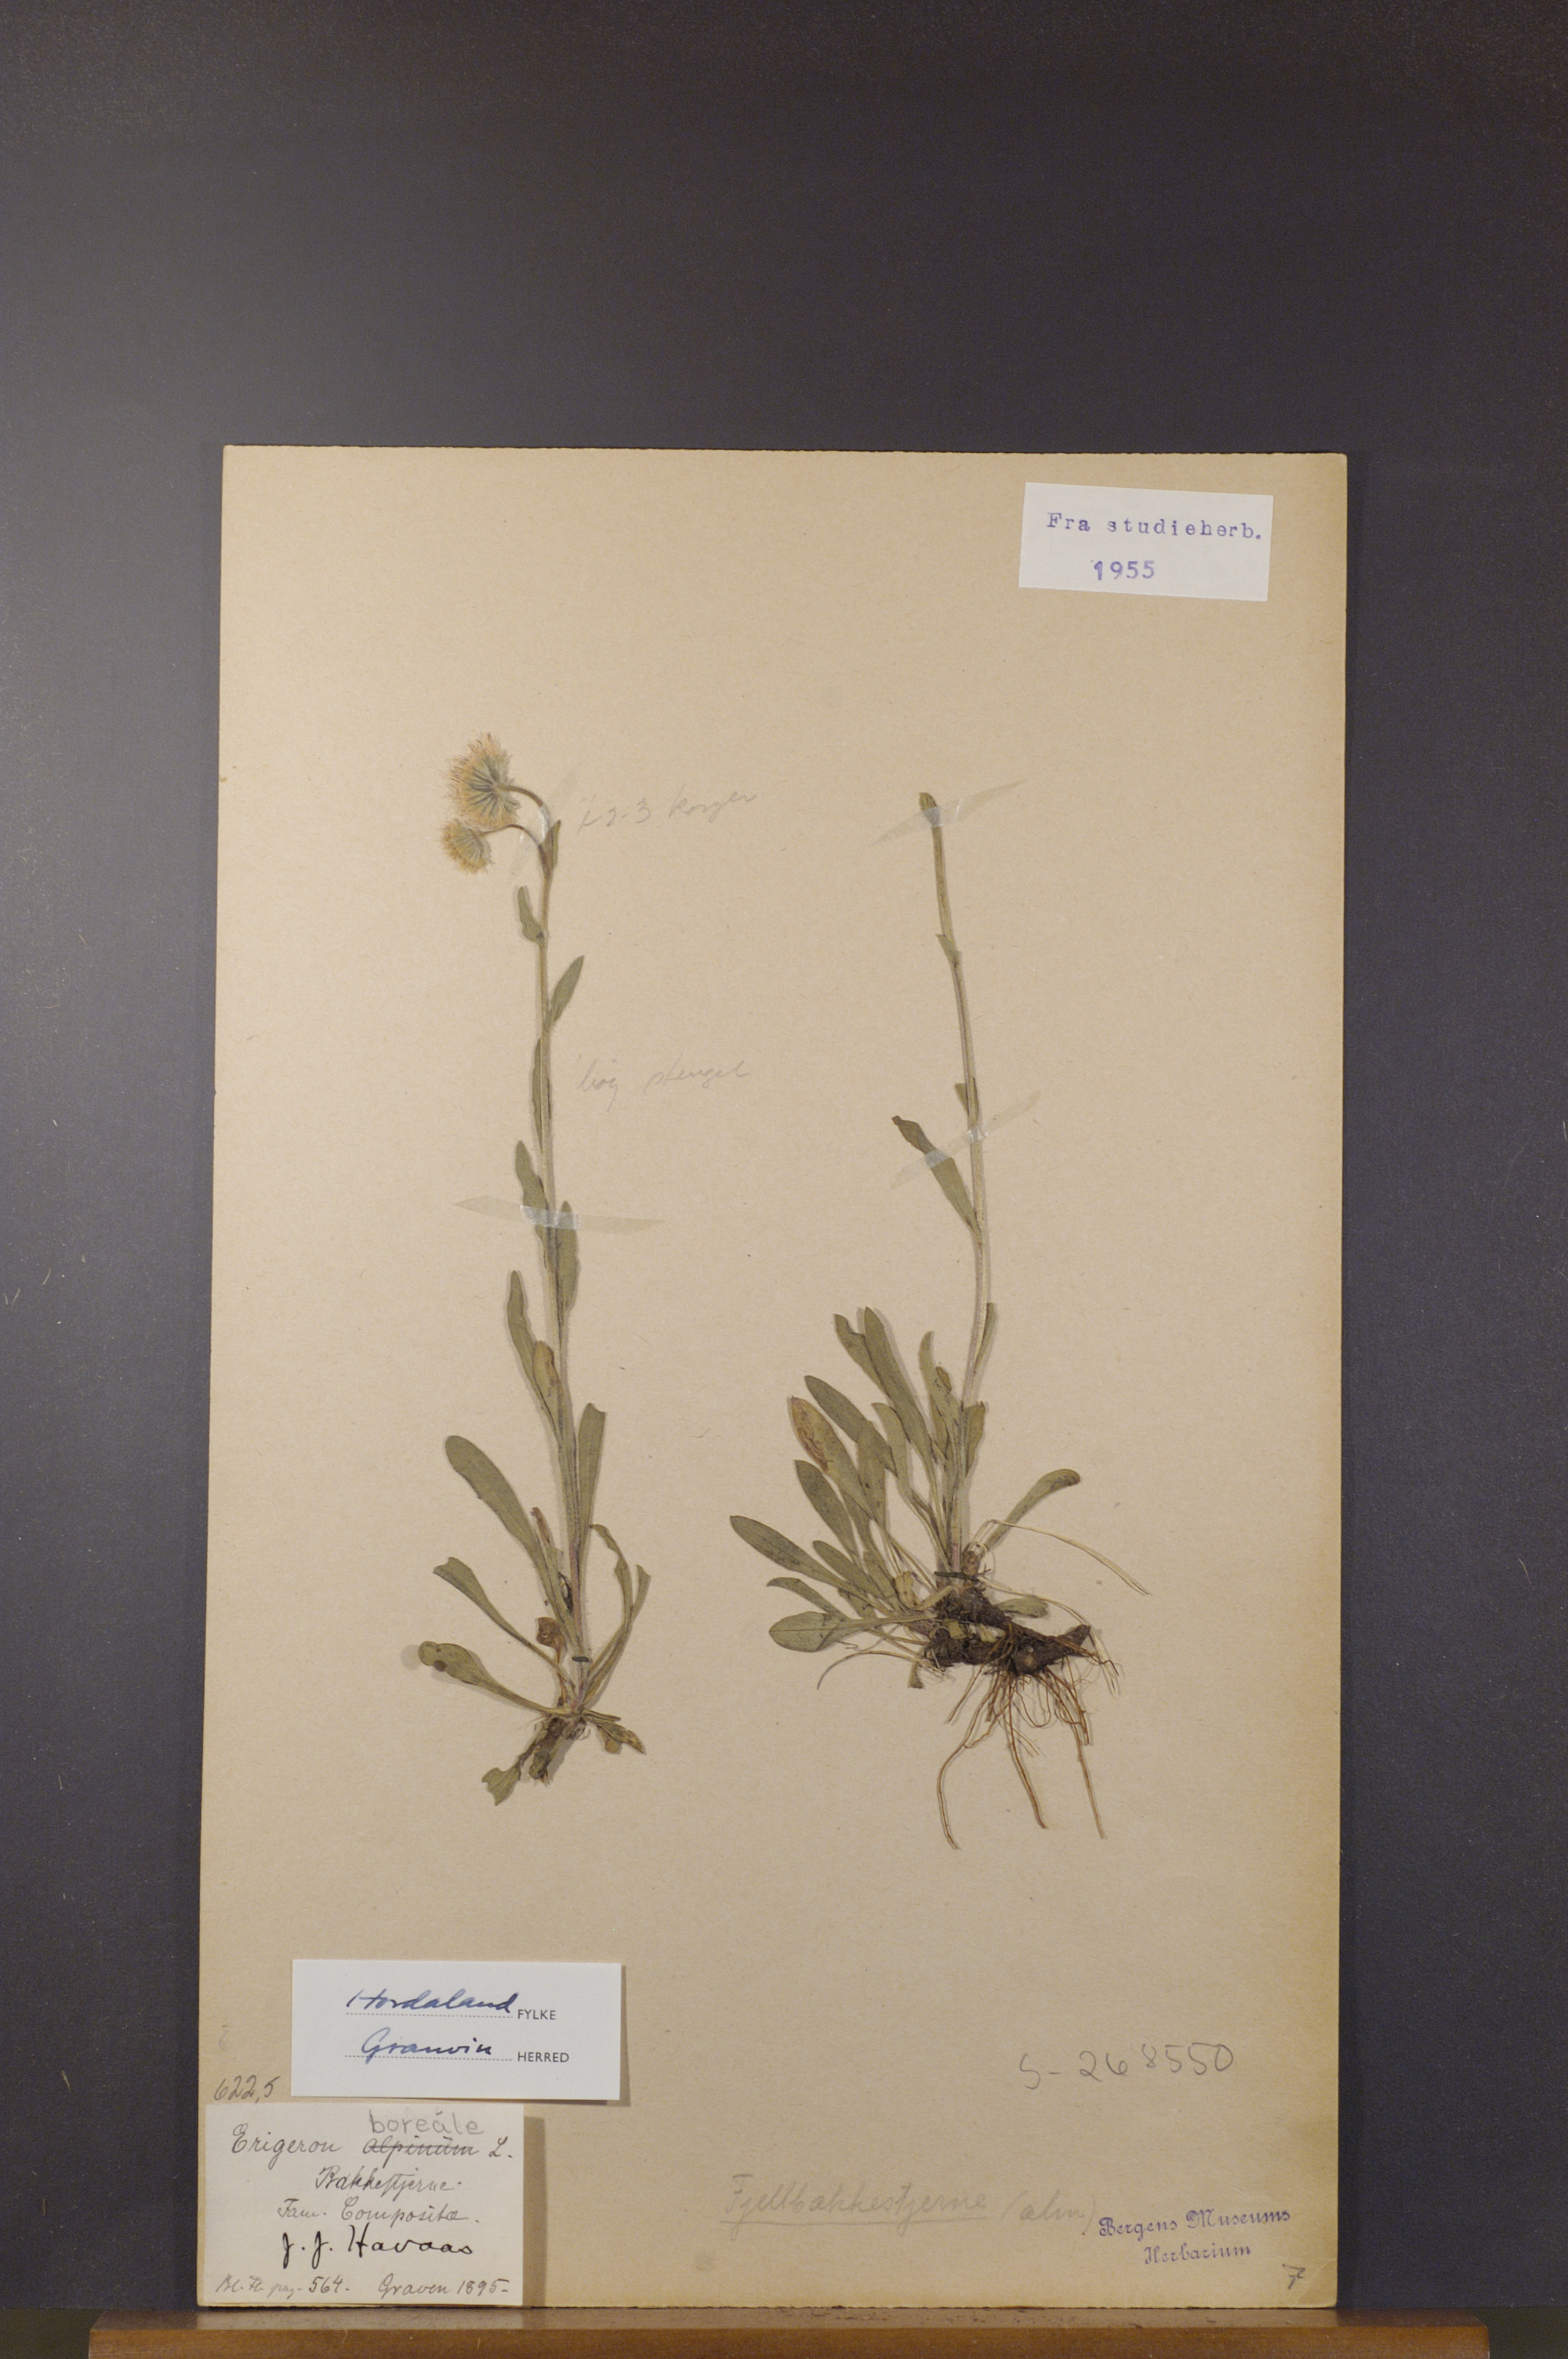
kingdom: Plantae
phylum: Tracheophyta
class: Magnoliopsida
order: Asterales
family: Asteraceae
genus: Erigeron
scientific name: Erigeron borealis
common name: Alpine fleabane
